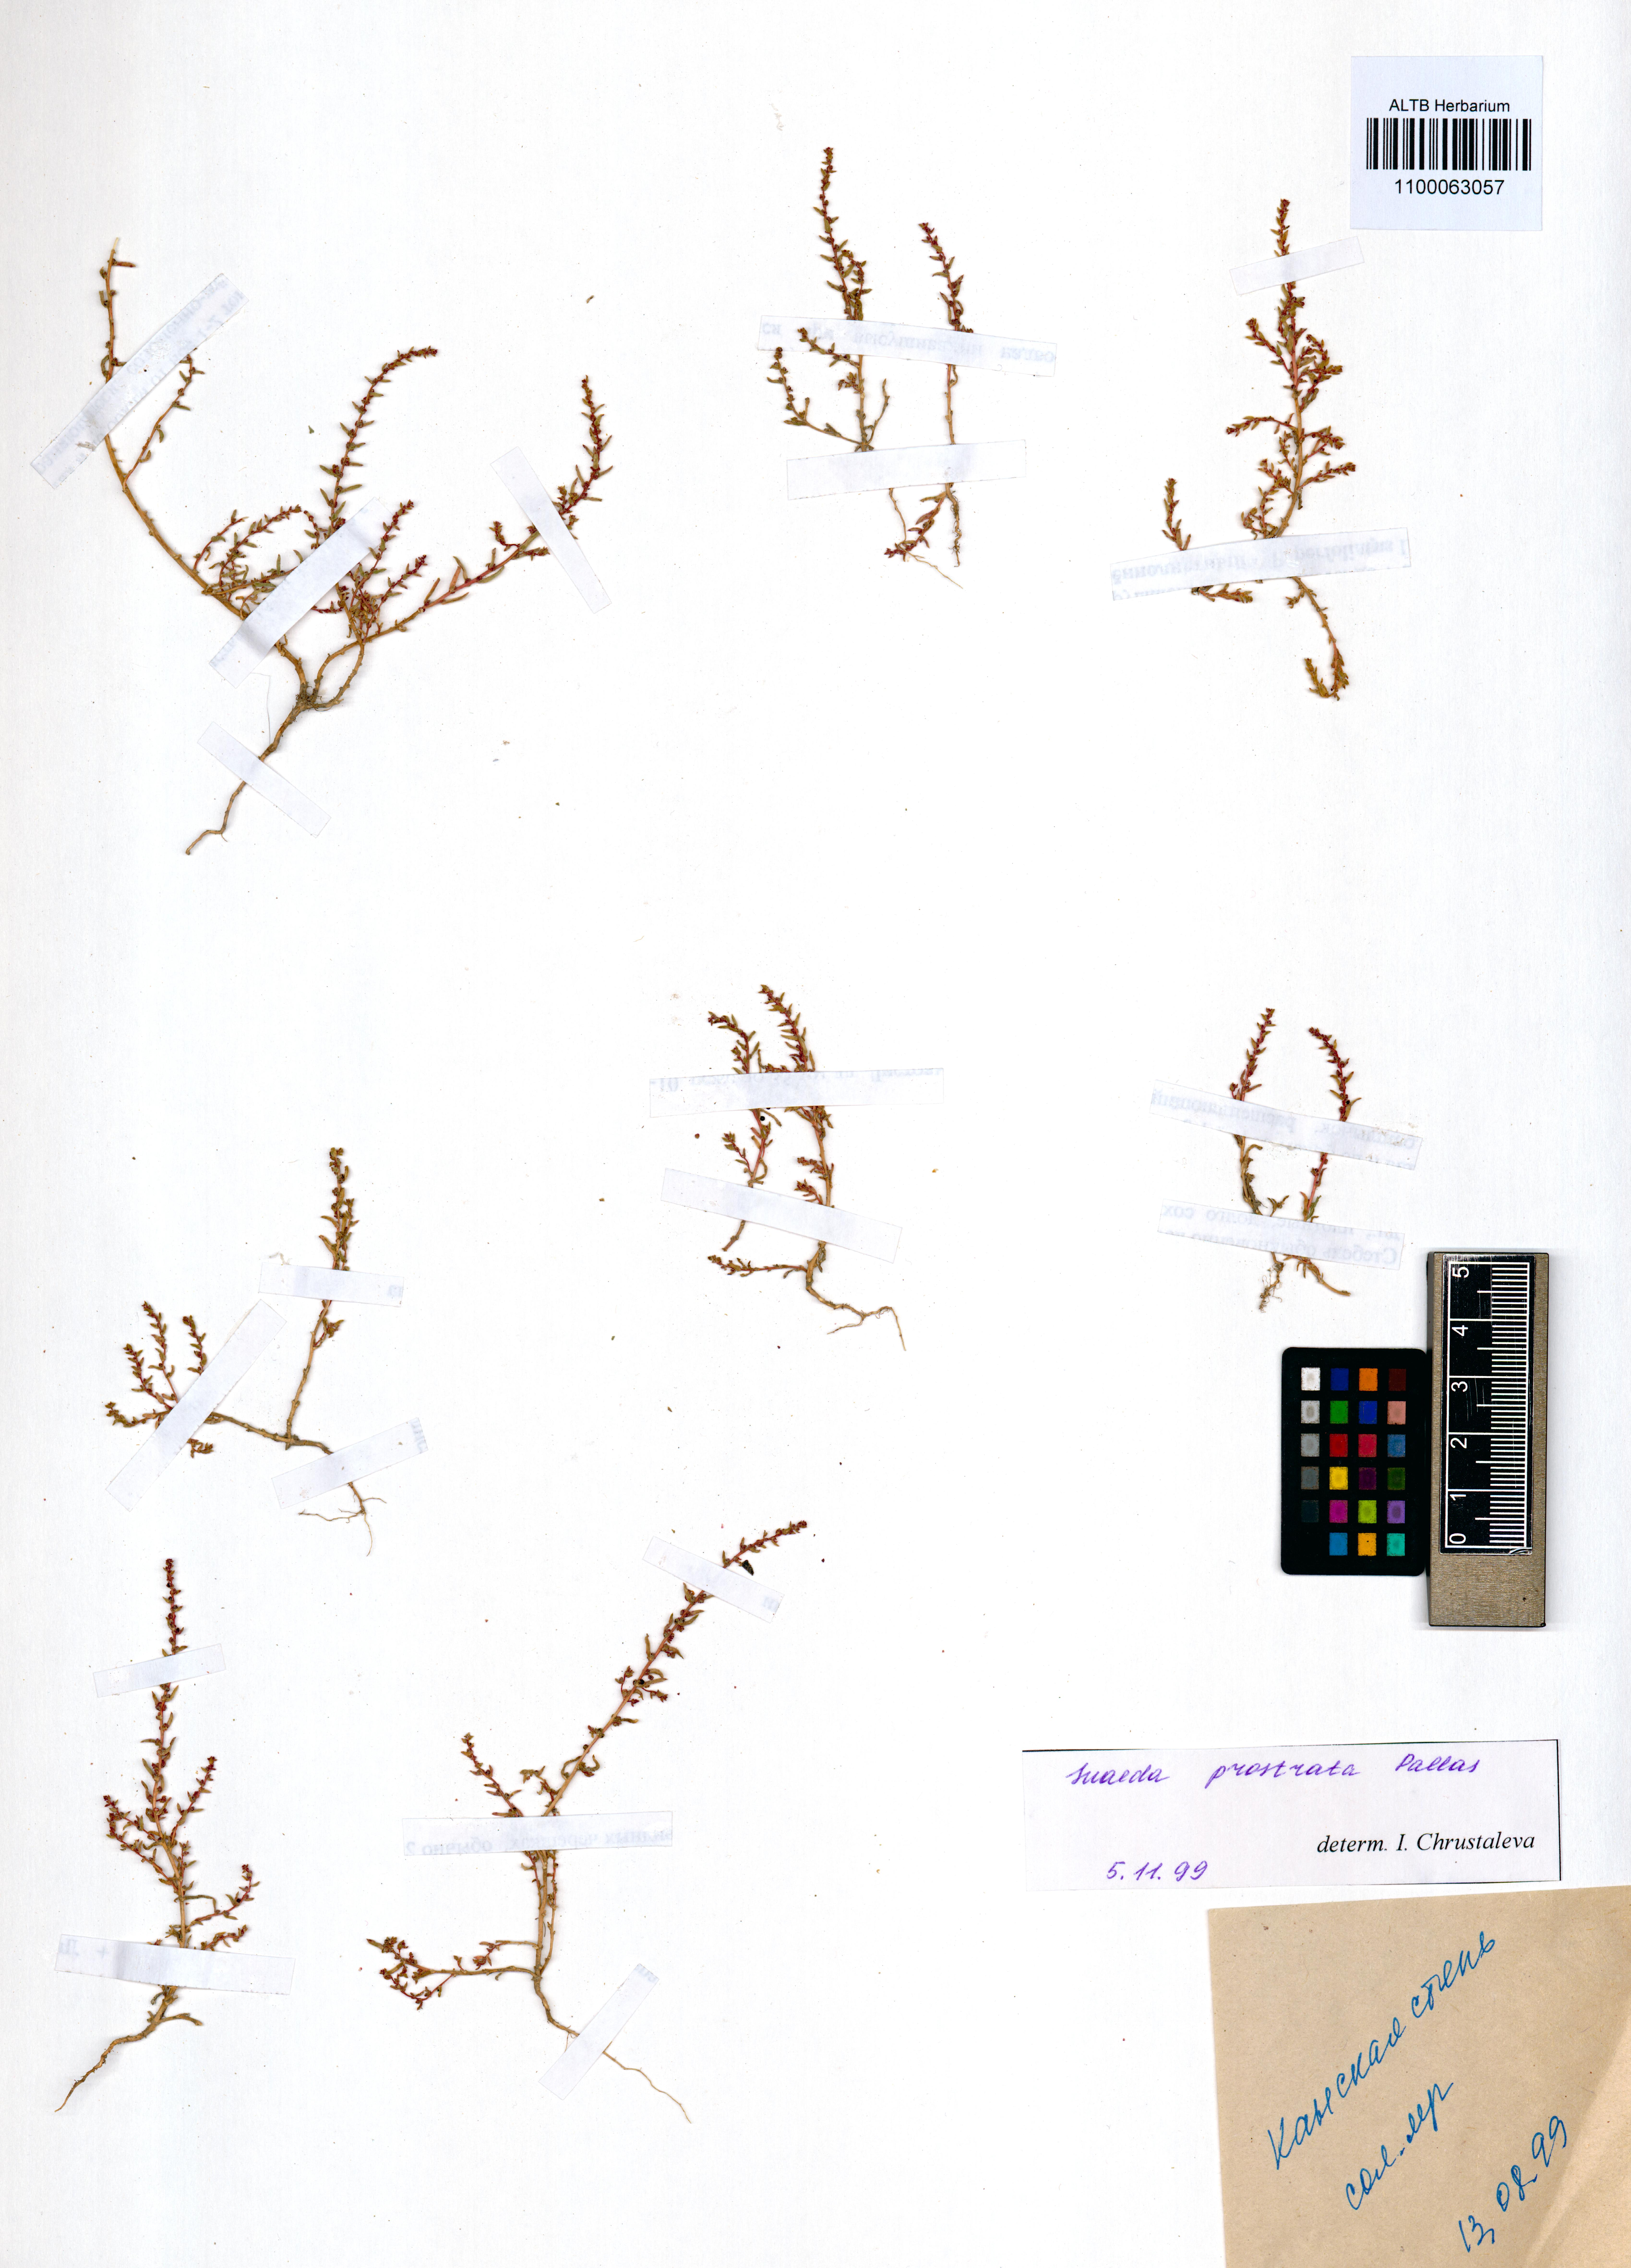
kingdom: Plantae
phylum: Tracheophyta
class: Magnoliopsida
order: Caryophyllales
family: Amaranthaceae
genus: Suaeda
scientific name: Suaeda prostrata
